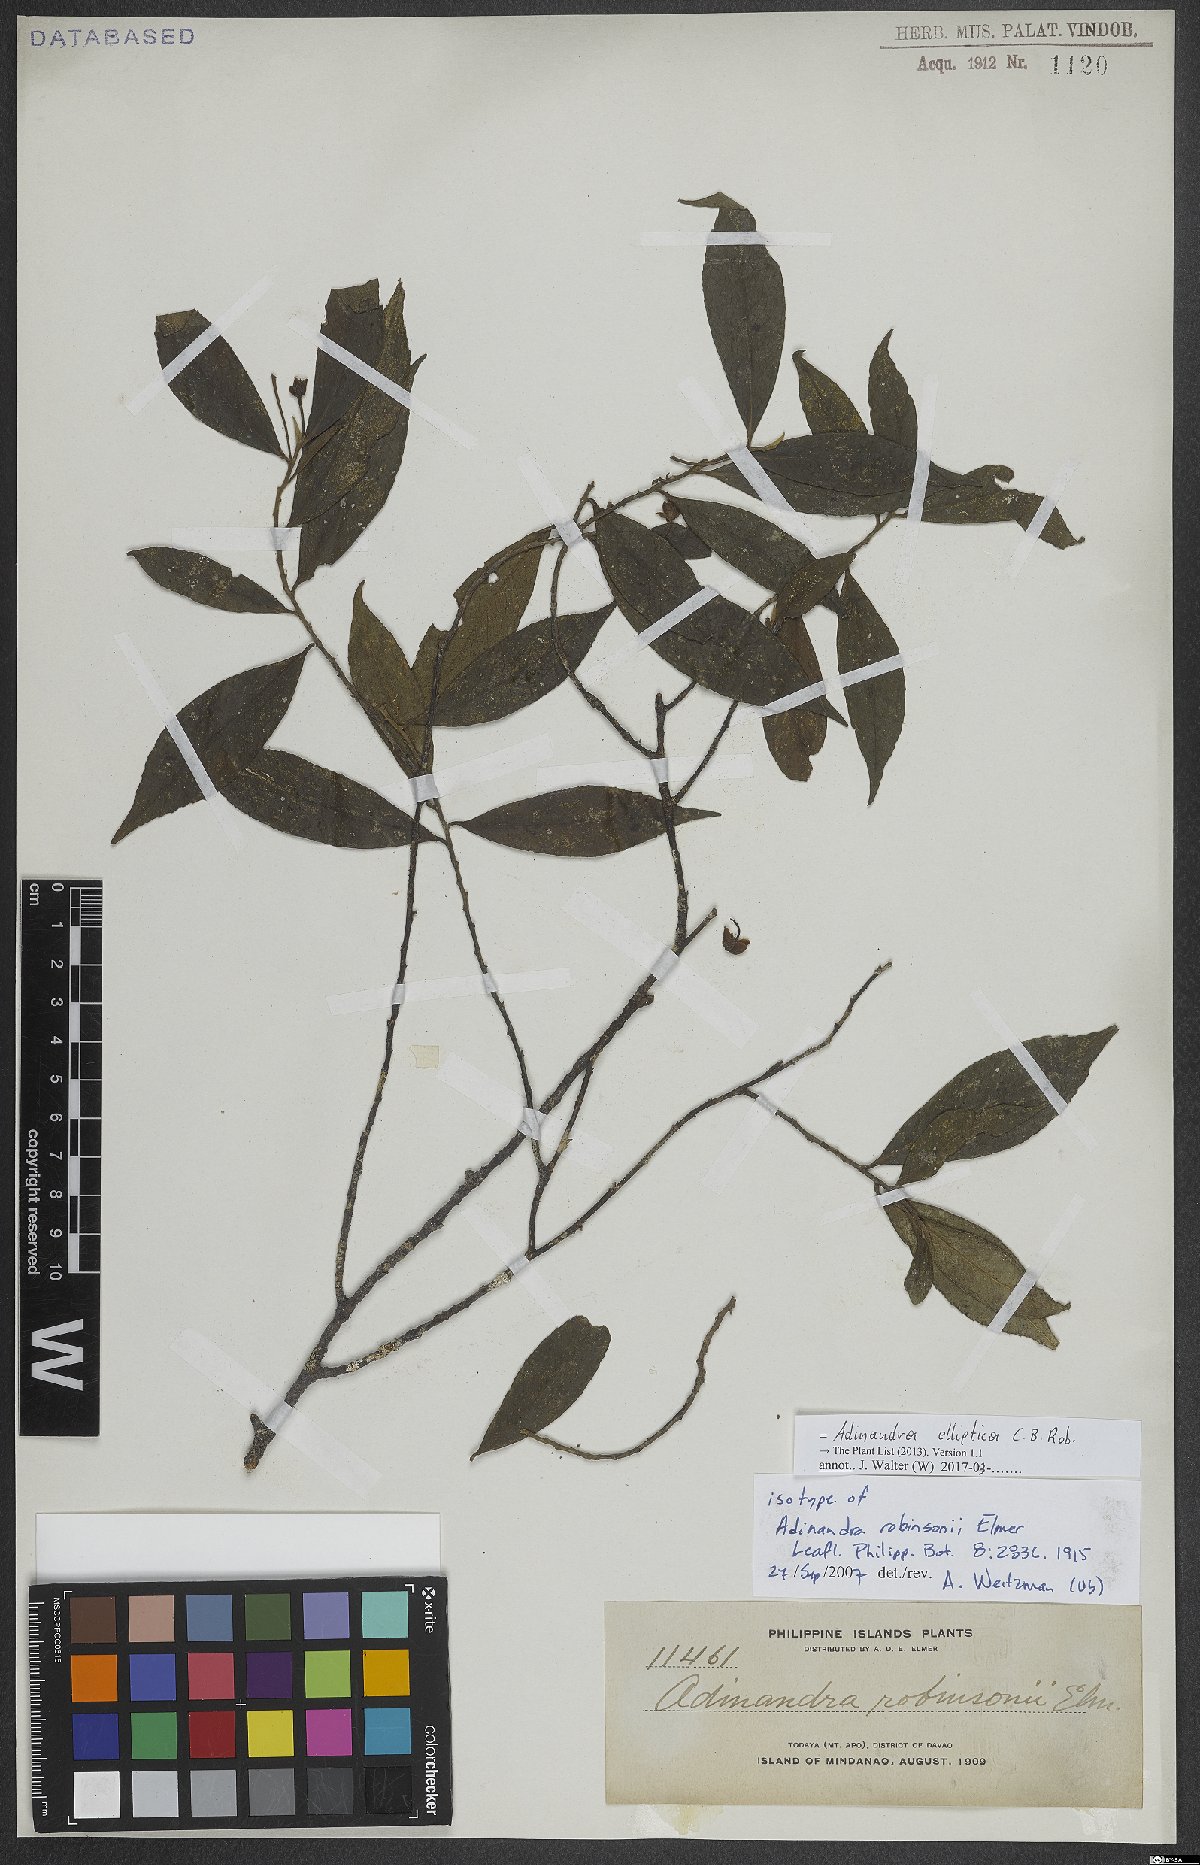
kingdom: Plantae
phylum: Tracheophyta
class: Magnoliopsida
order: Ericales
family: Pentaphylacaceae
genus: Adinandra
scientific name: Adinandra elliptica
